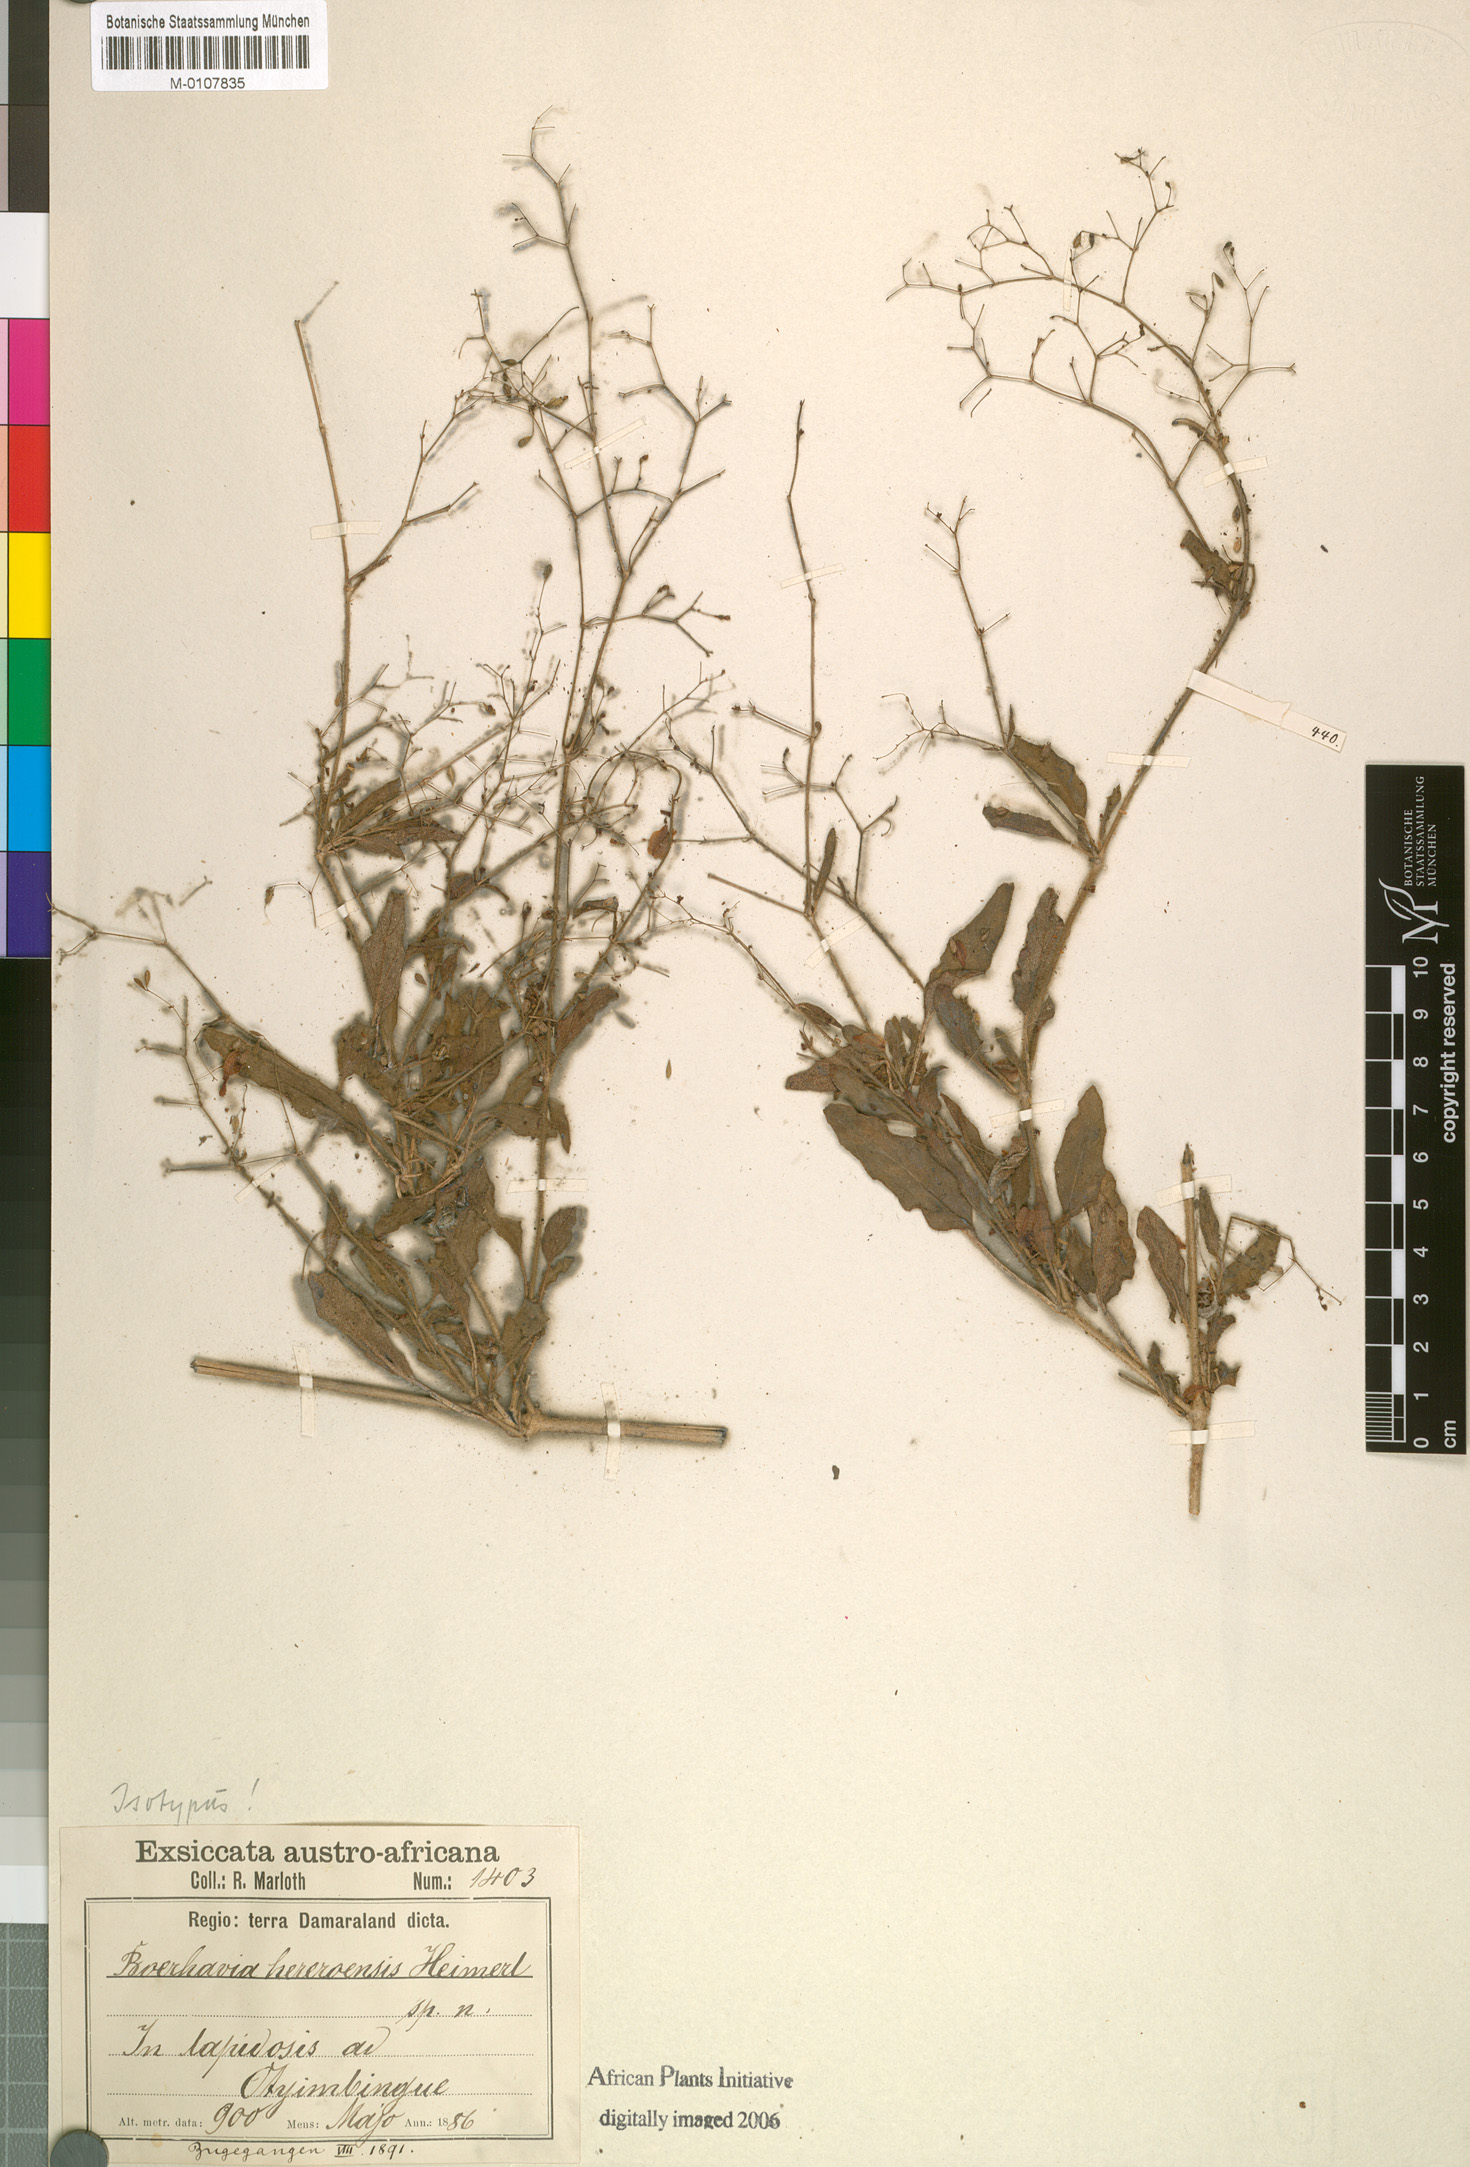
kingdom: Plantae
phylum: Tracheophyta
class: Magnoliopsida
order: Caryophyllales
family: Nyctaginaceae
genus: Boerhavia
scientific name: Boerhavia hereroensis
